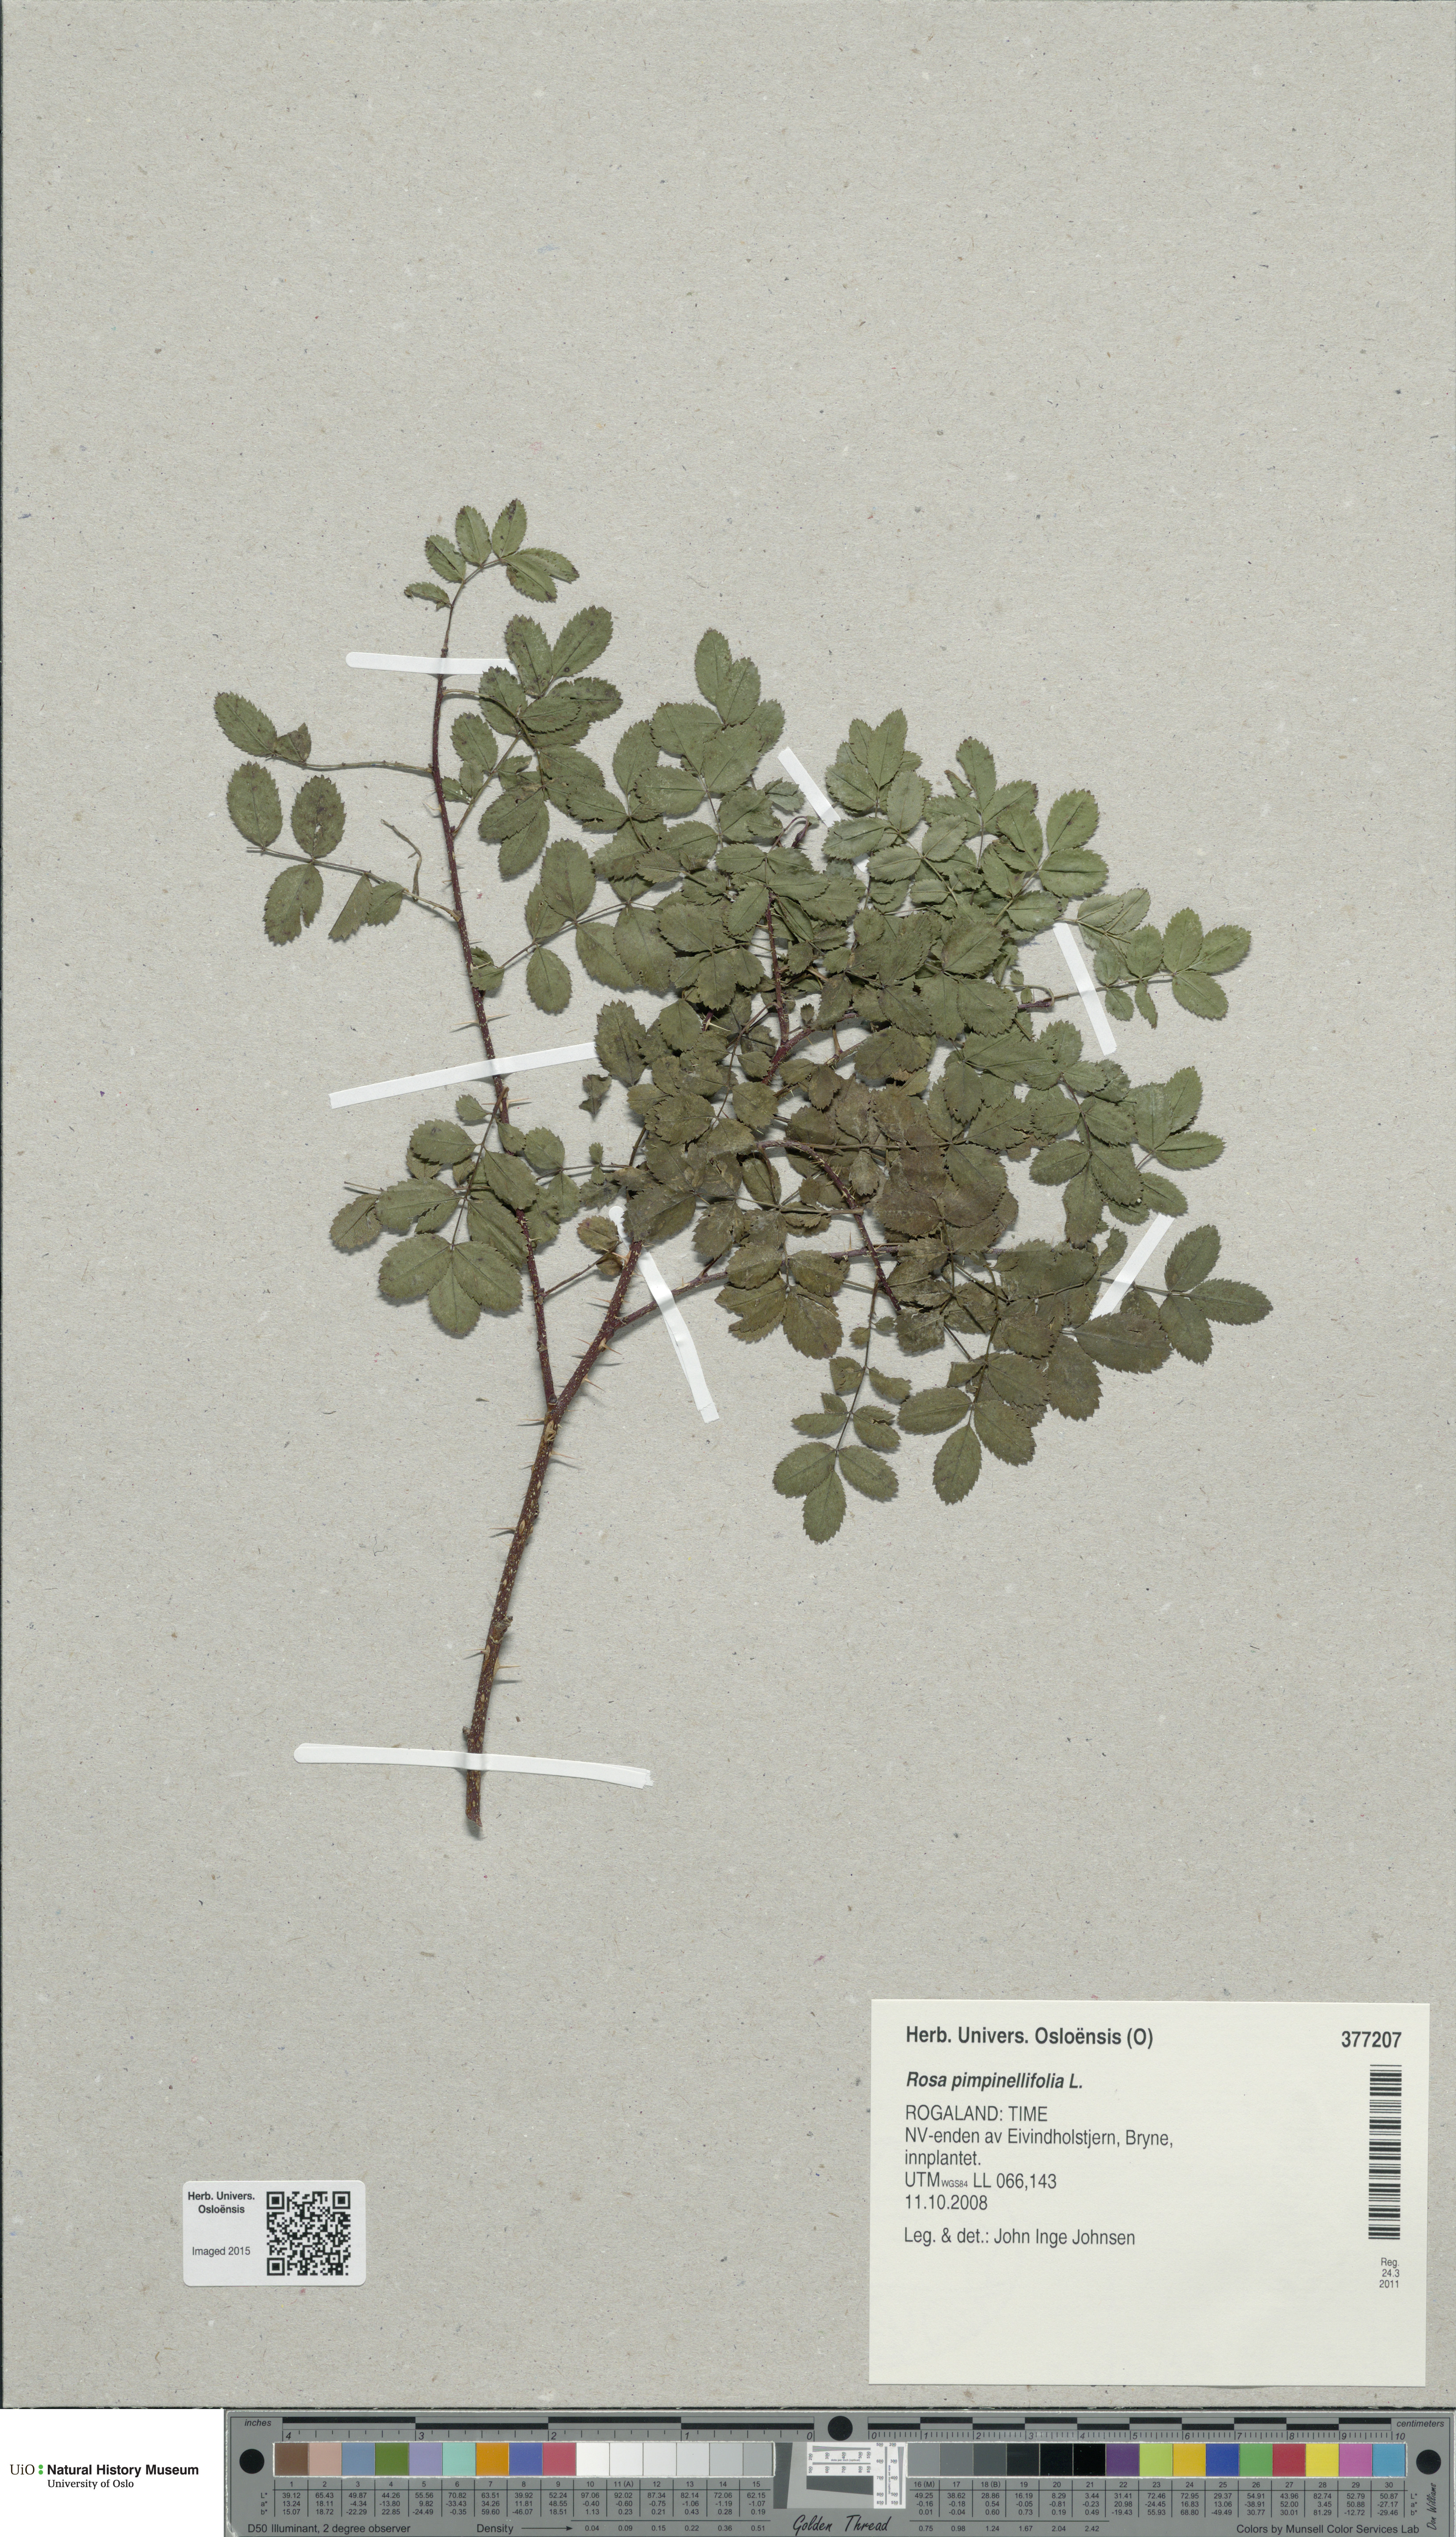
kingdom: Plantae
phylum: Tracheophyta
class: Magnoliopsida
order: Rosales
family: Rosaceae
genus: Rosa
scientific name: Rosa spinosissima
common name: Burnet rose
